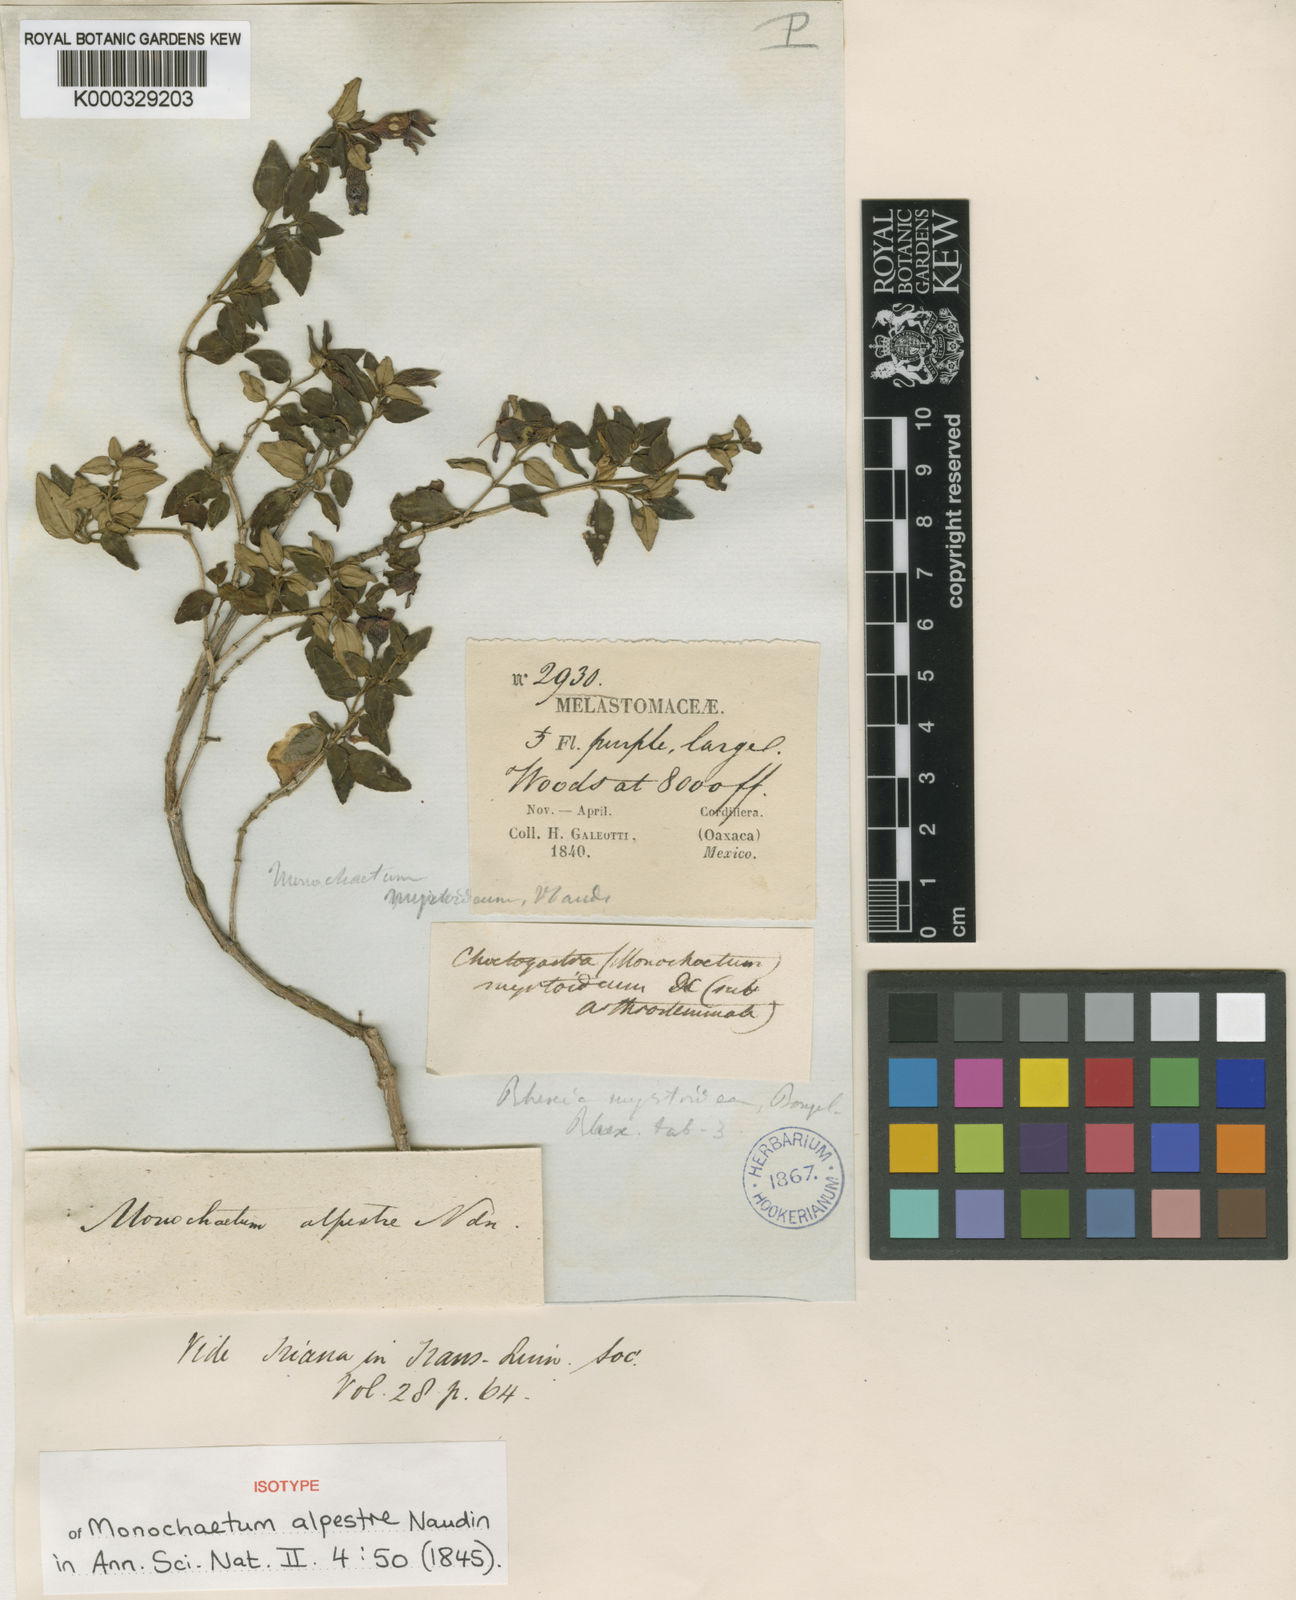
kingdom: Plantae
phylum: Tracheophyta
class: Magnoliopsida
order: Myrtales
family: Melastomataceae
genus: Monochaetum
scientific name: Monochaetum alpestre
